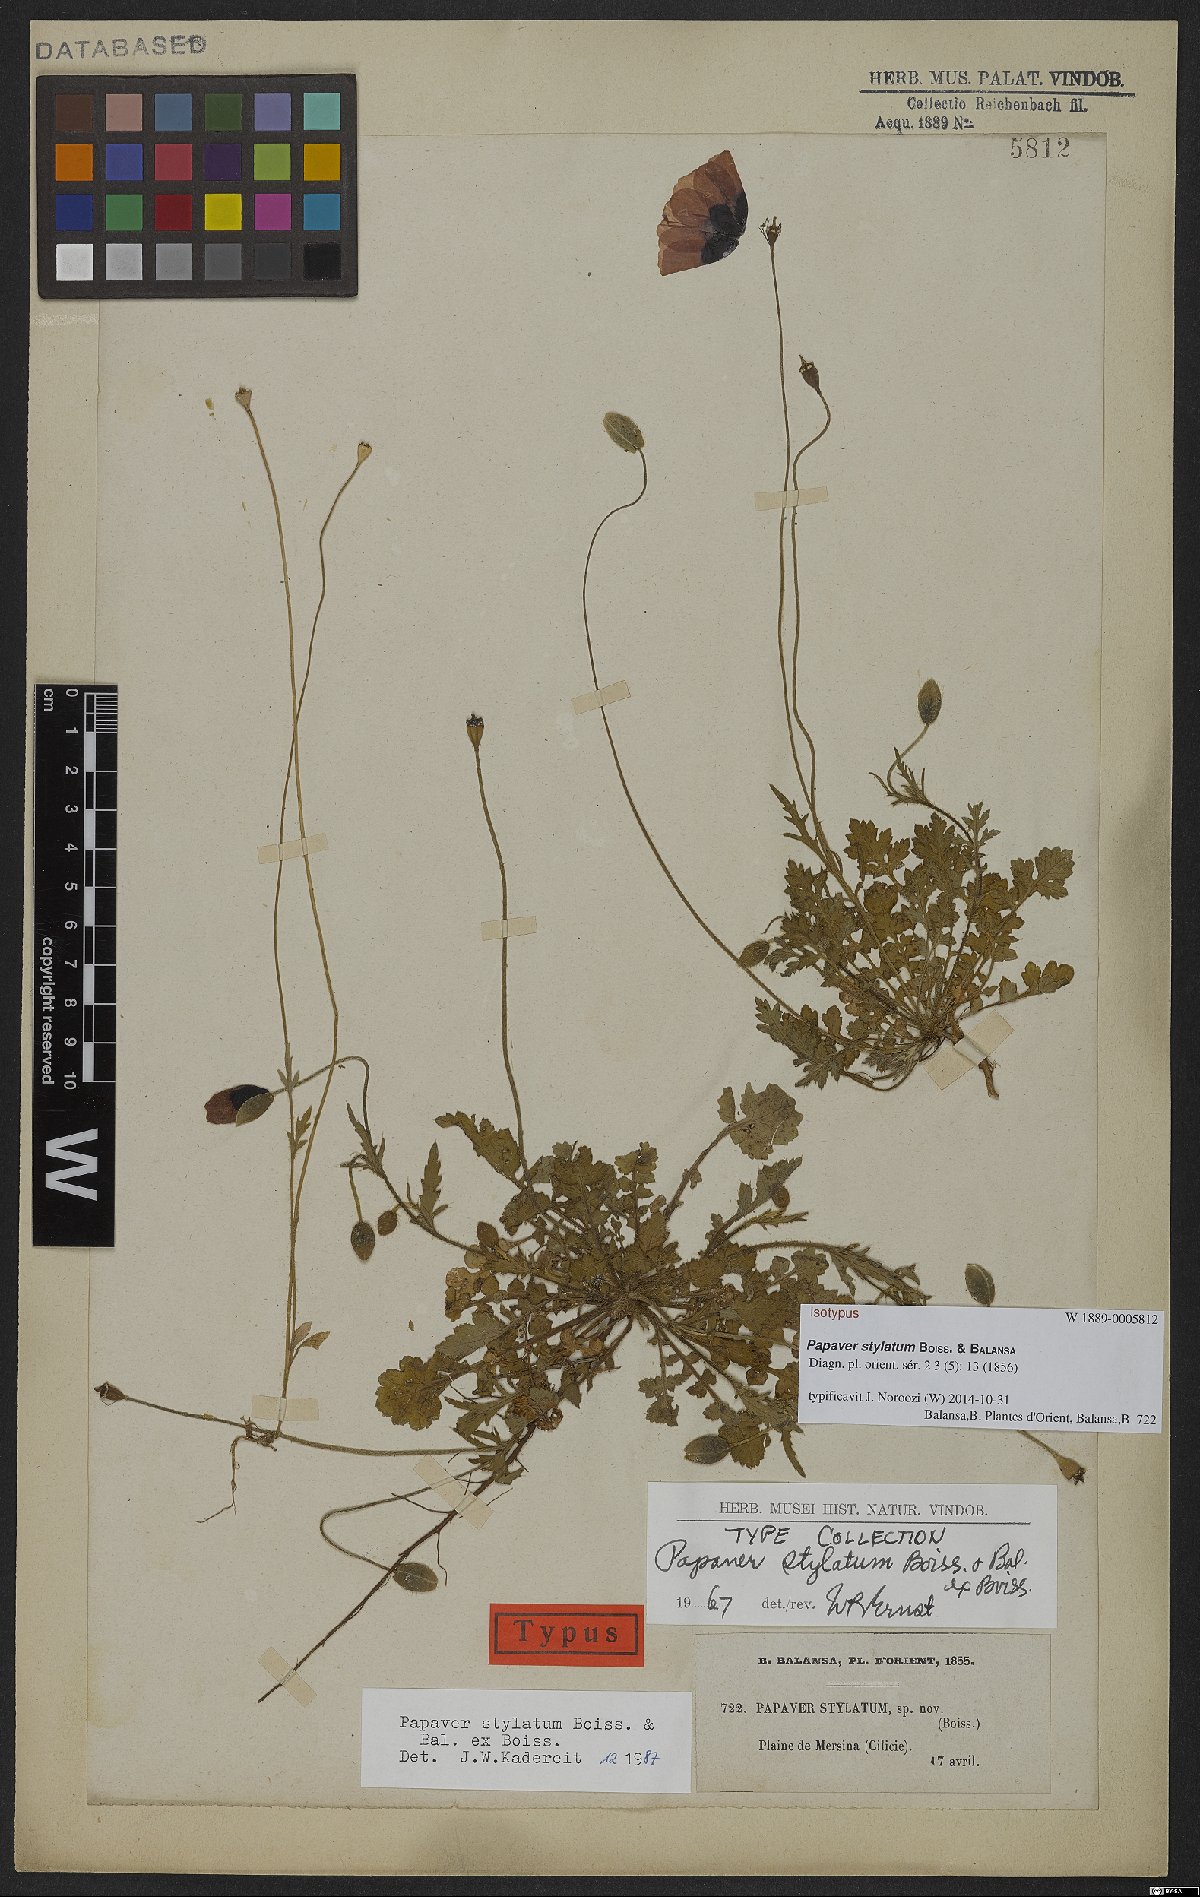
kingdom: Plantae
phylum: Tracheophyta
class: Magnoliopsida
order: Ranunculales
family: Papaveraceae
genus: Papaver
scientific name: Papaver umbonatum
